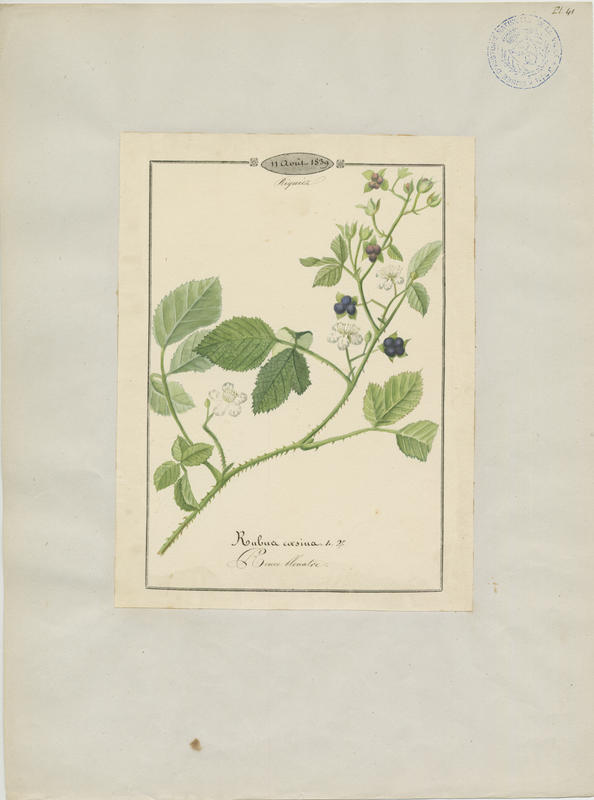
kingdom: Plantae
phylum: Tracheophyta
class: Magnoliopsida
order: Rosales
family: Rosaceae
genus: Rubus
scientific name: Rubus caesius
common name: Dewberry
